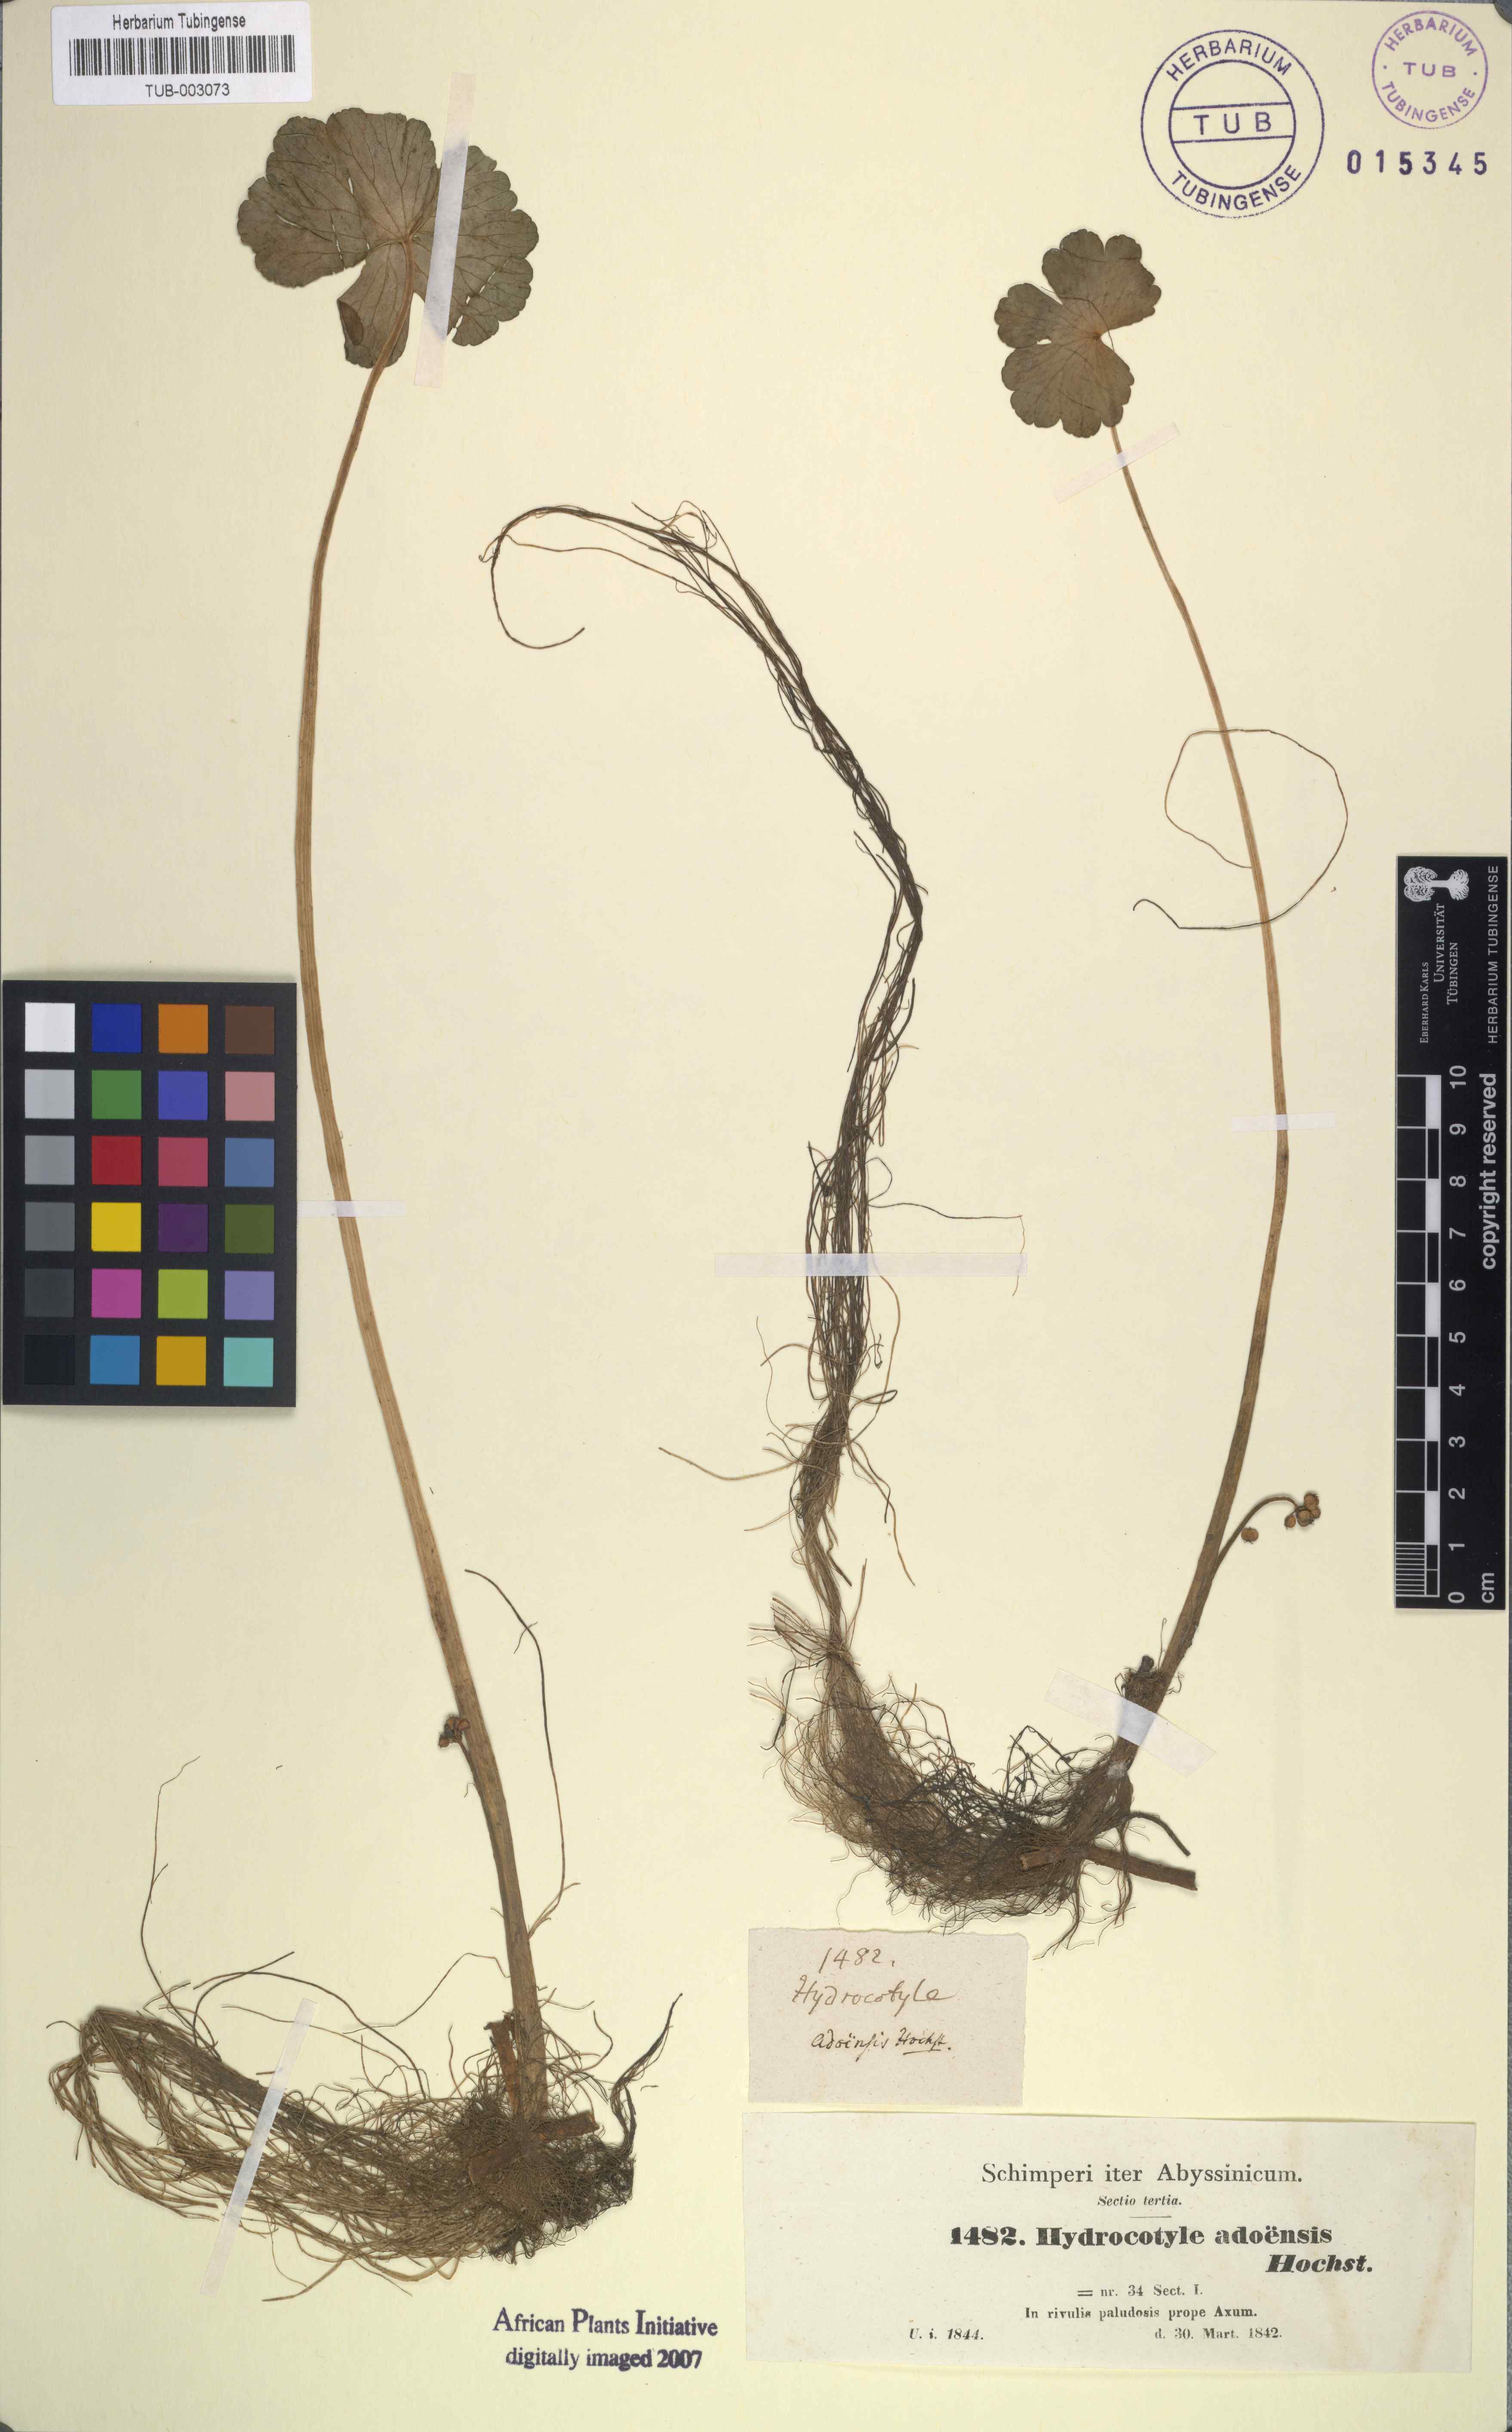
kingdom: Plantae
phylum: Tracheophyta
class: Magnoliopsida
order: Apiales
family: Araliaceae
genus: Hydrocotyle
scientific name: Hydrocotyle ranunculoides
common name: Floating pennywort
